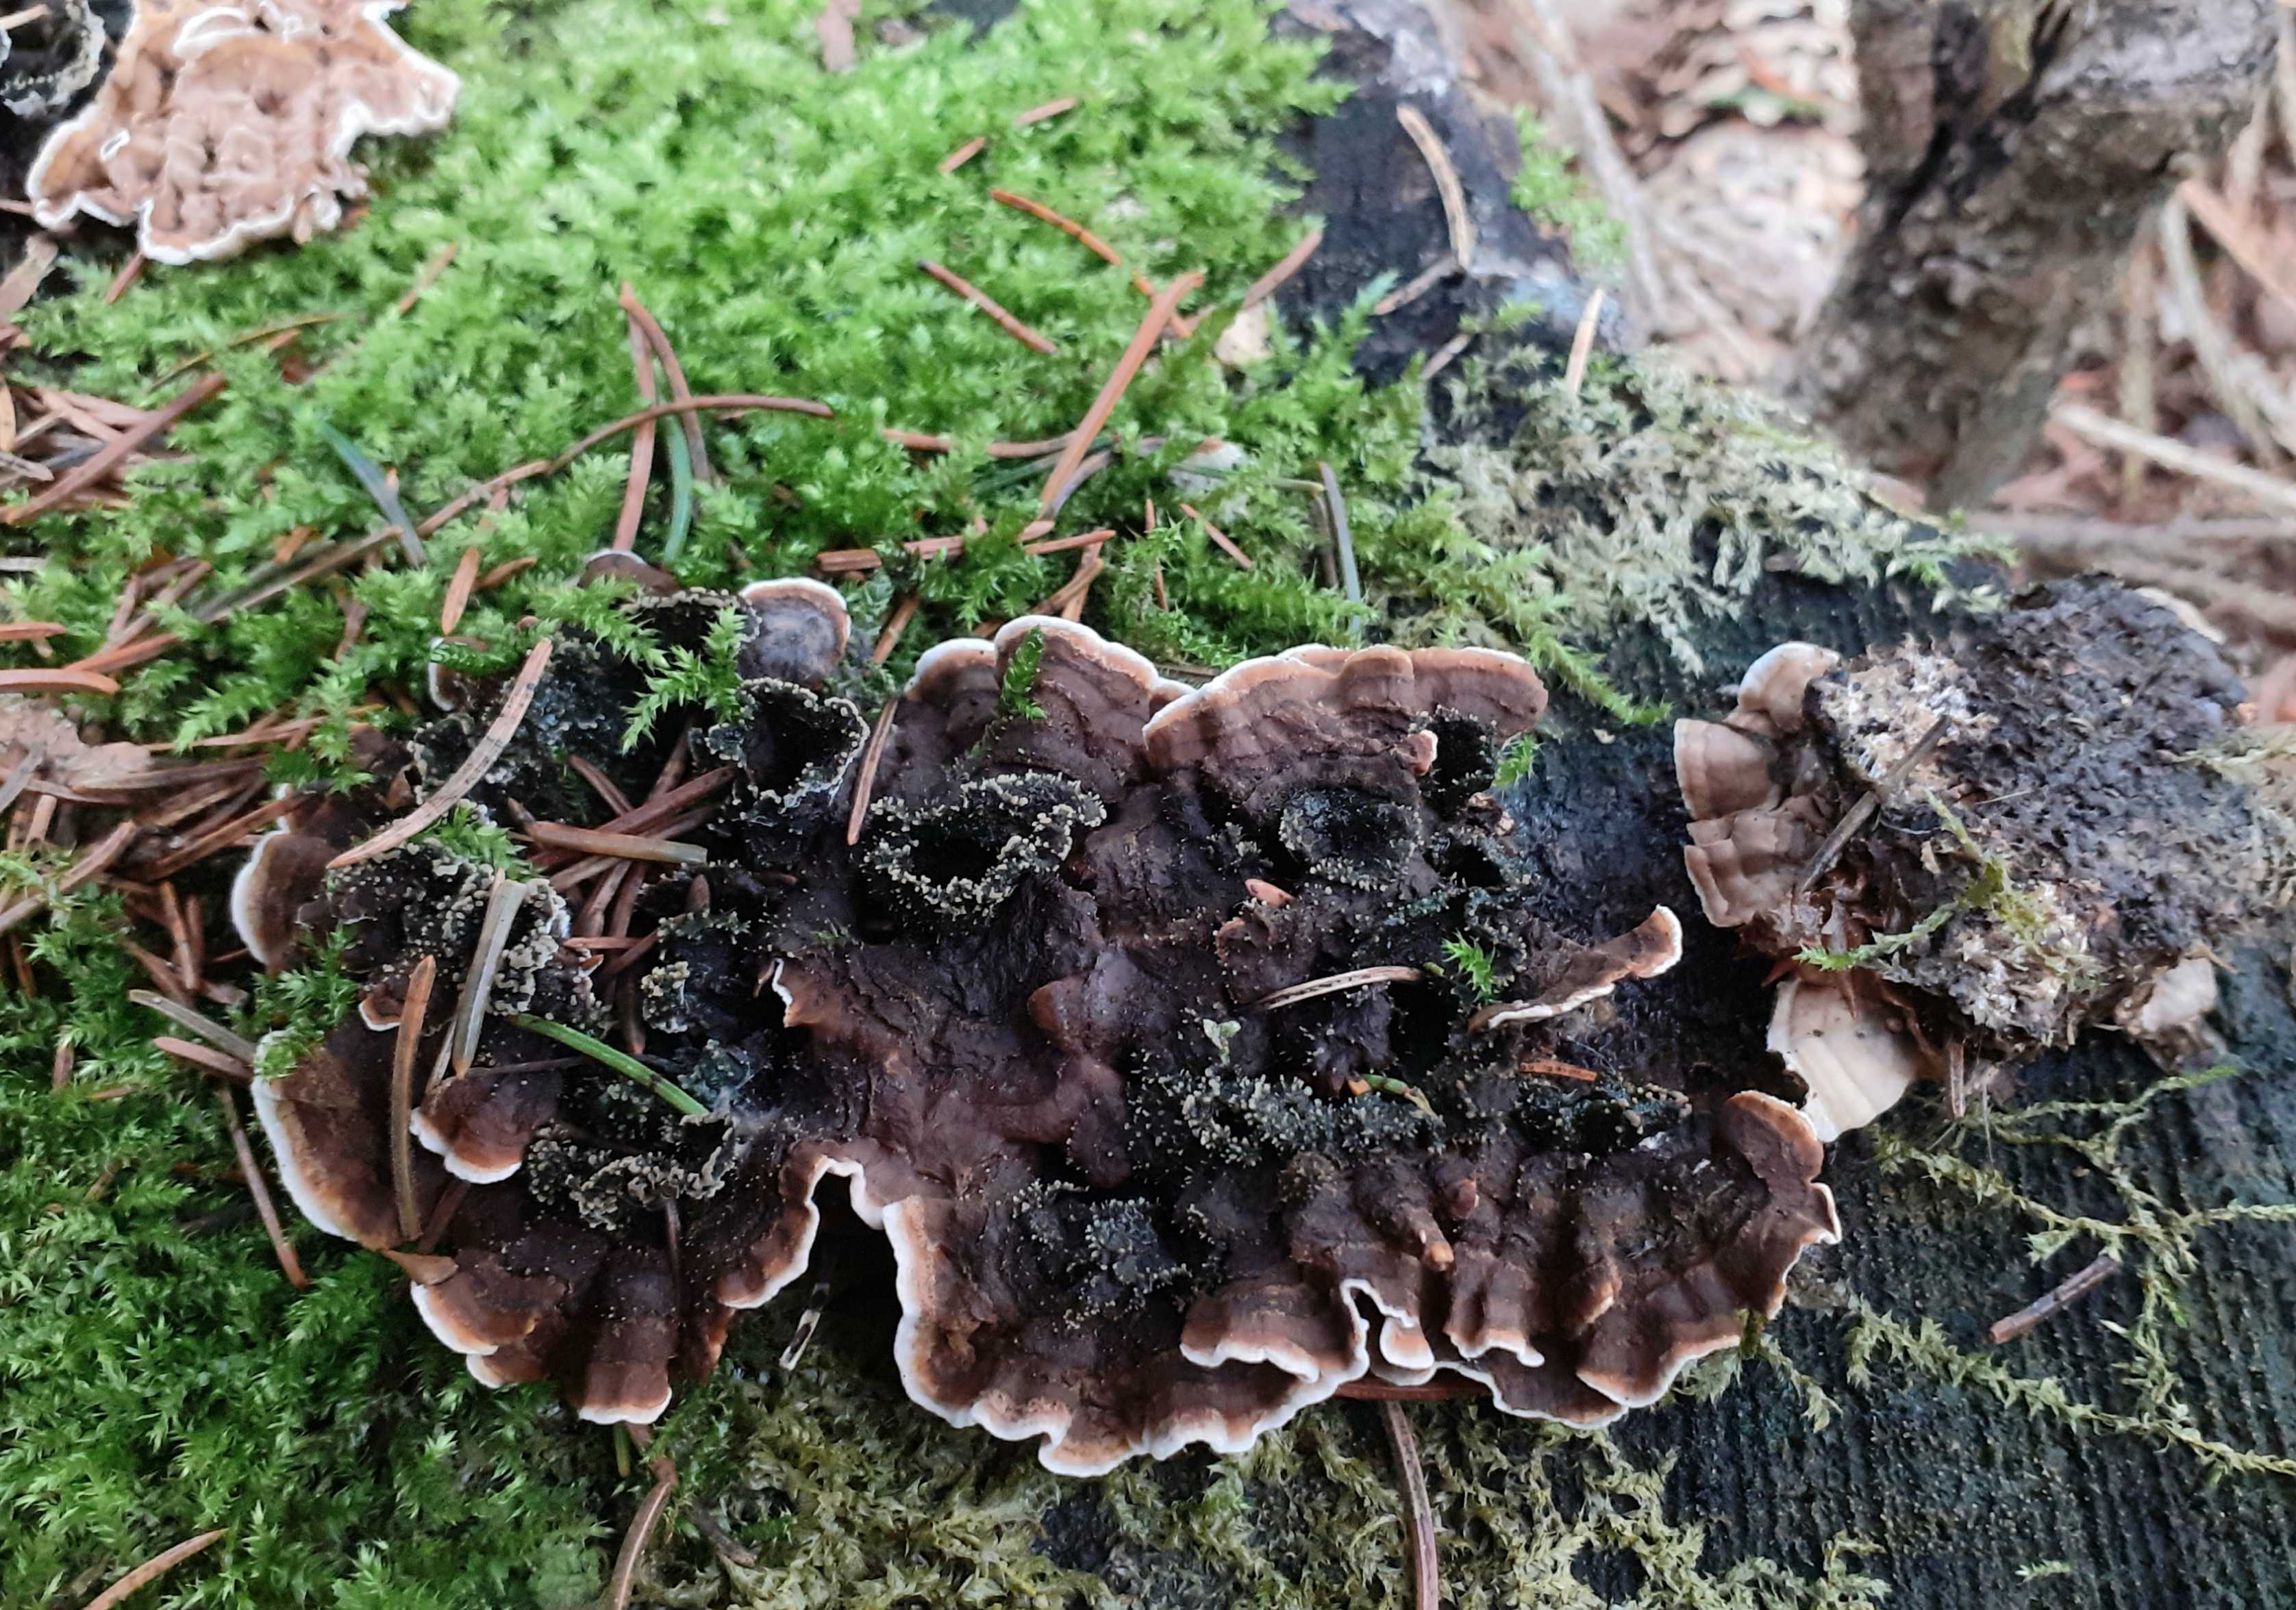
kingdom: Fungi
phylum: Basidiomycota
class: Agaricomycetes
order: Russulales
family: Hericiaceae
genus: Laxitextum
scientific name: Laxitextum bicolor
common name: tvefarvet filtskind
